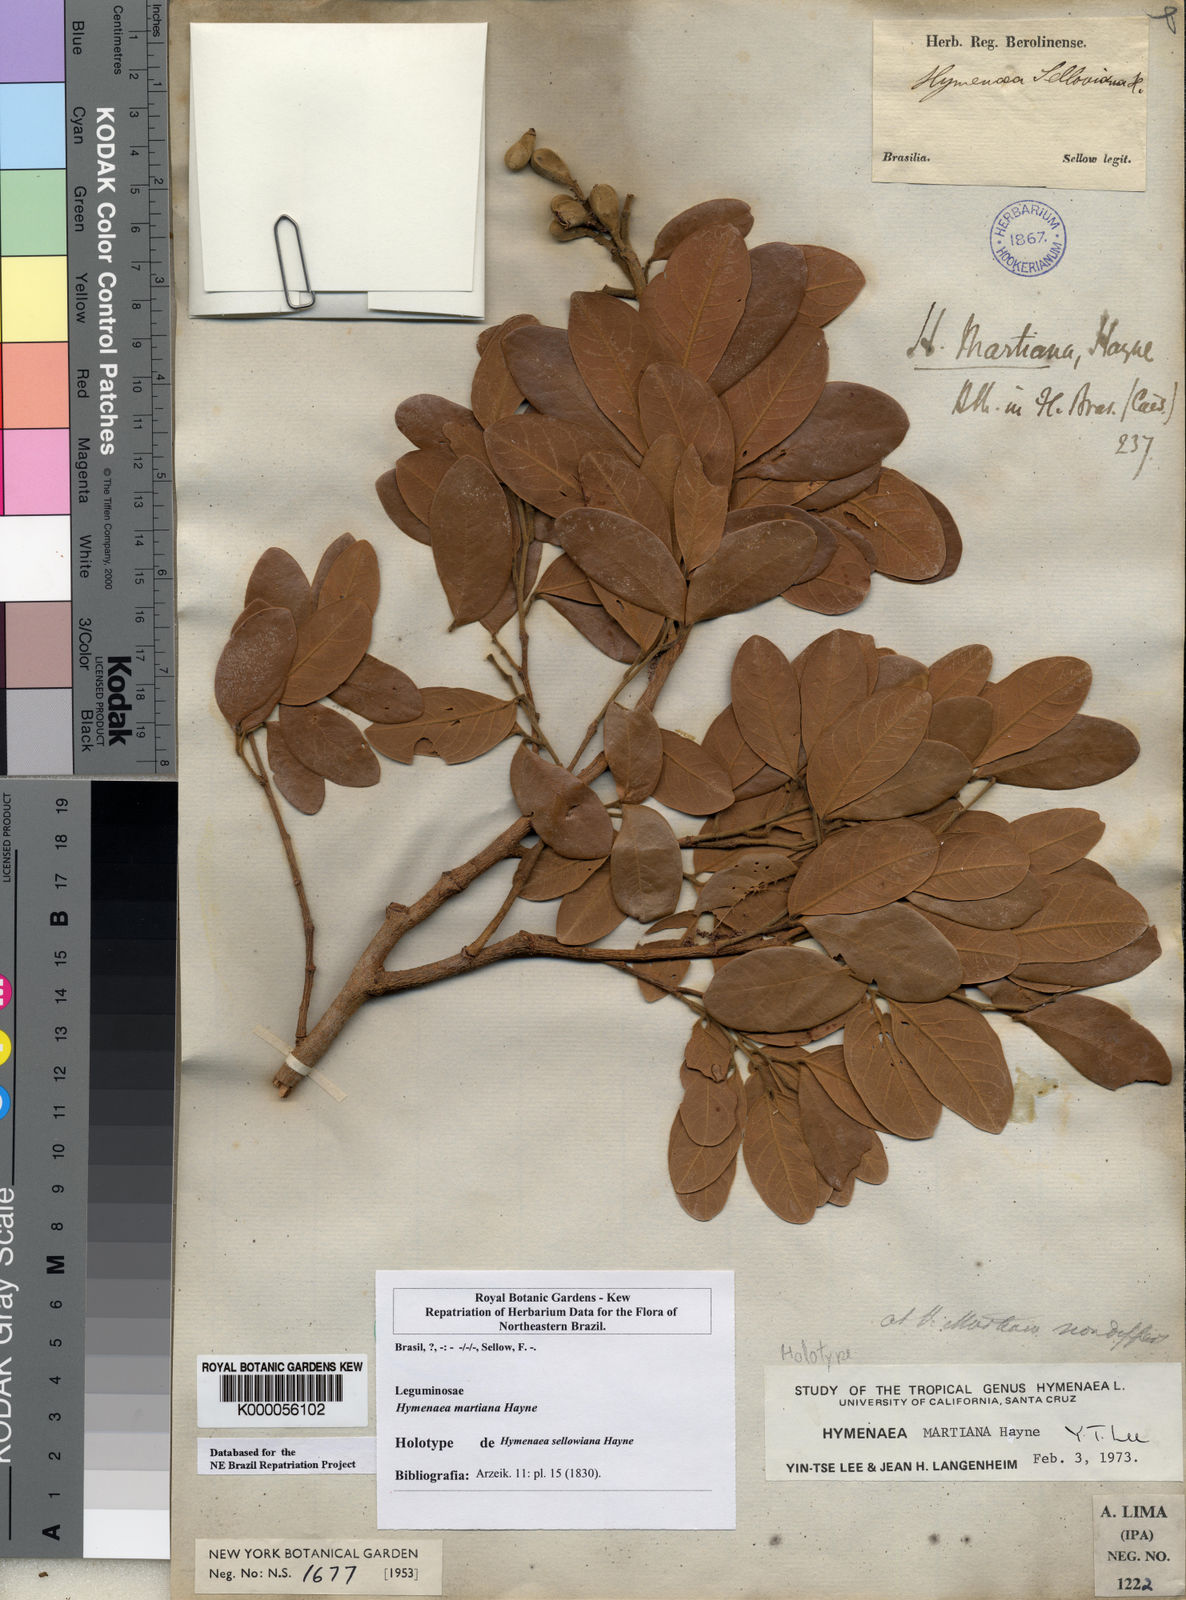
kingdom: Plantae
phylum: Tracheophyta
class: Magnoliopsida
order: Fabales
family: Fabaceae
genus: Hymenaea
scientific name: Hymenaea martiana
